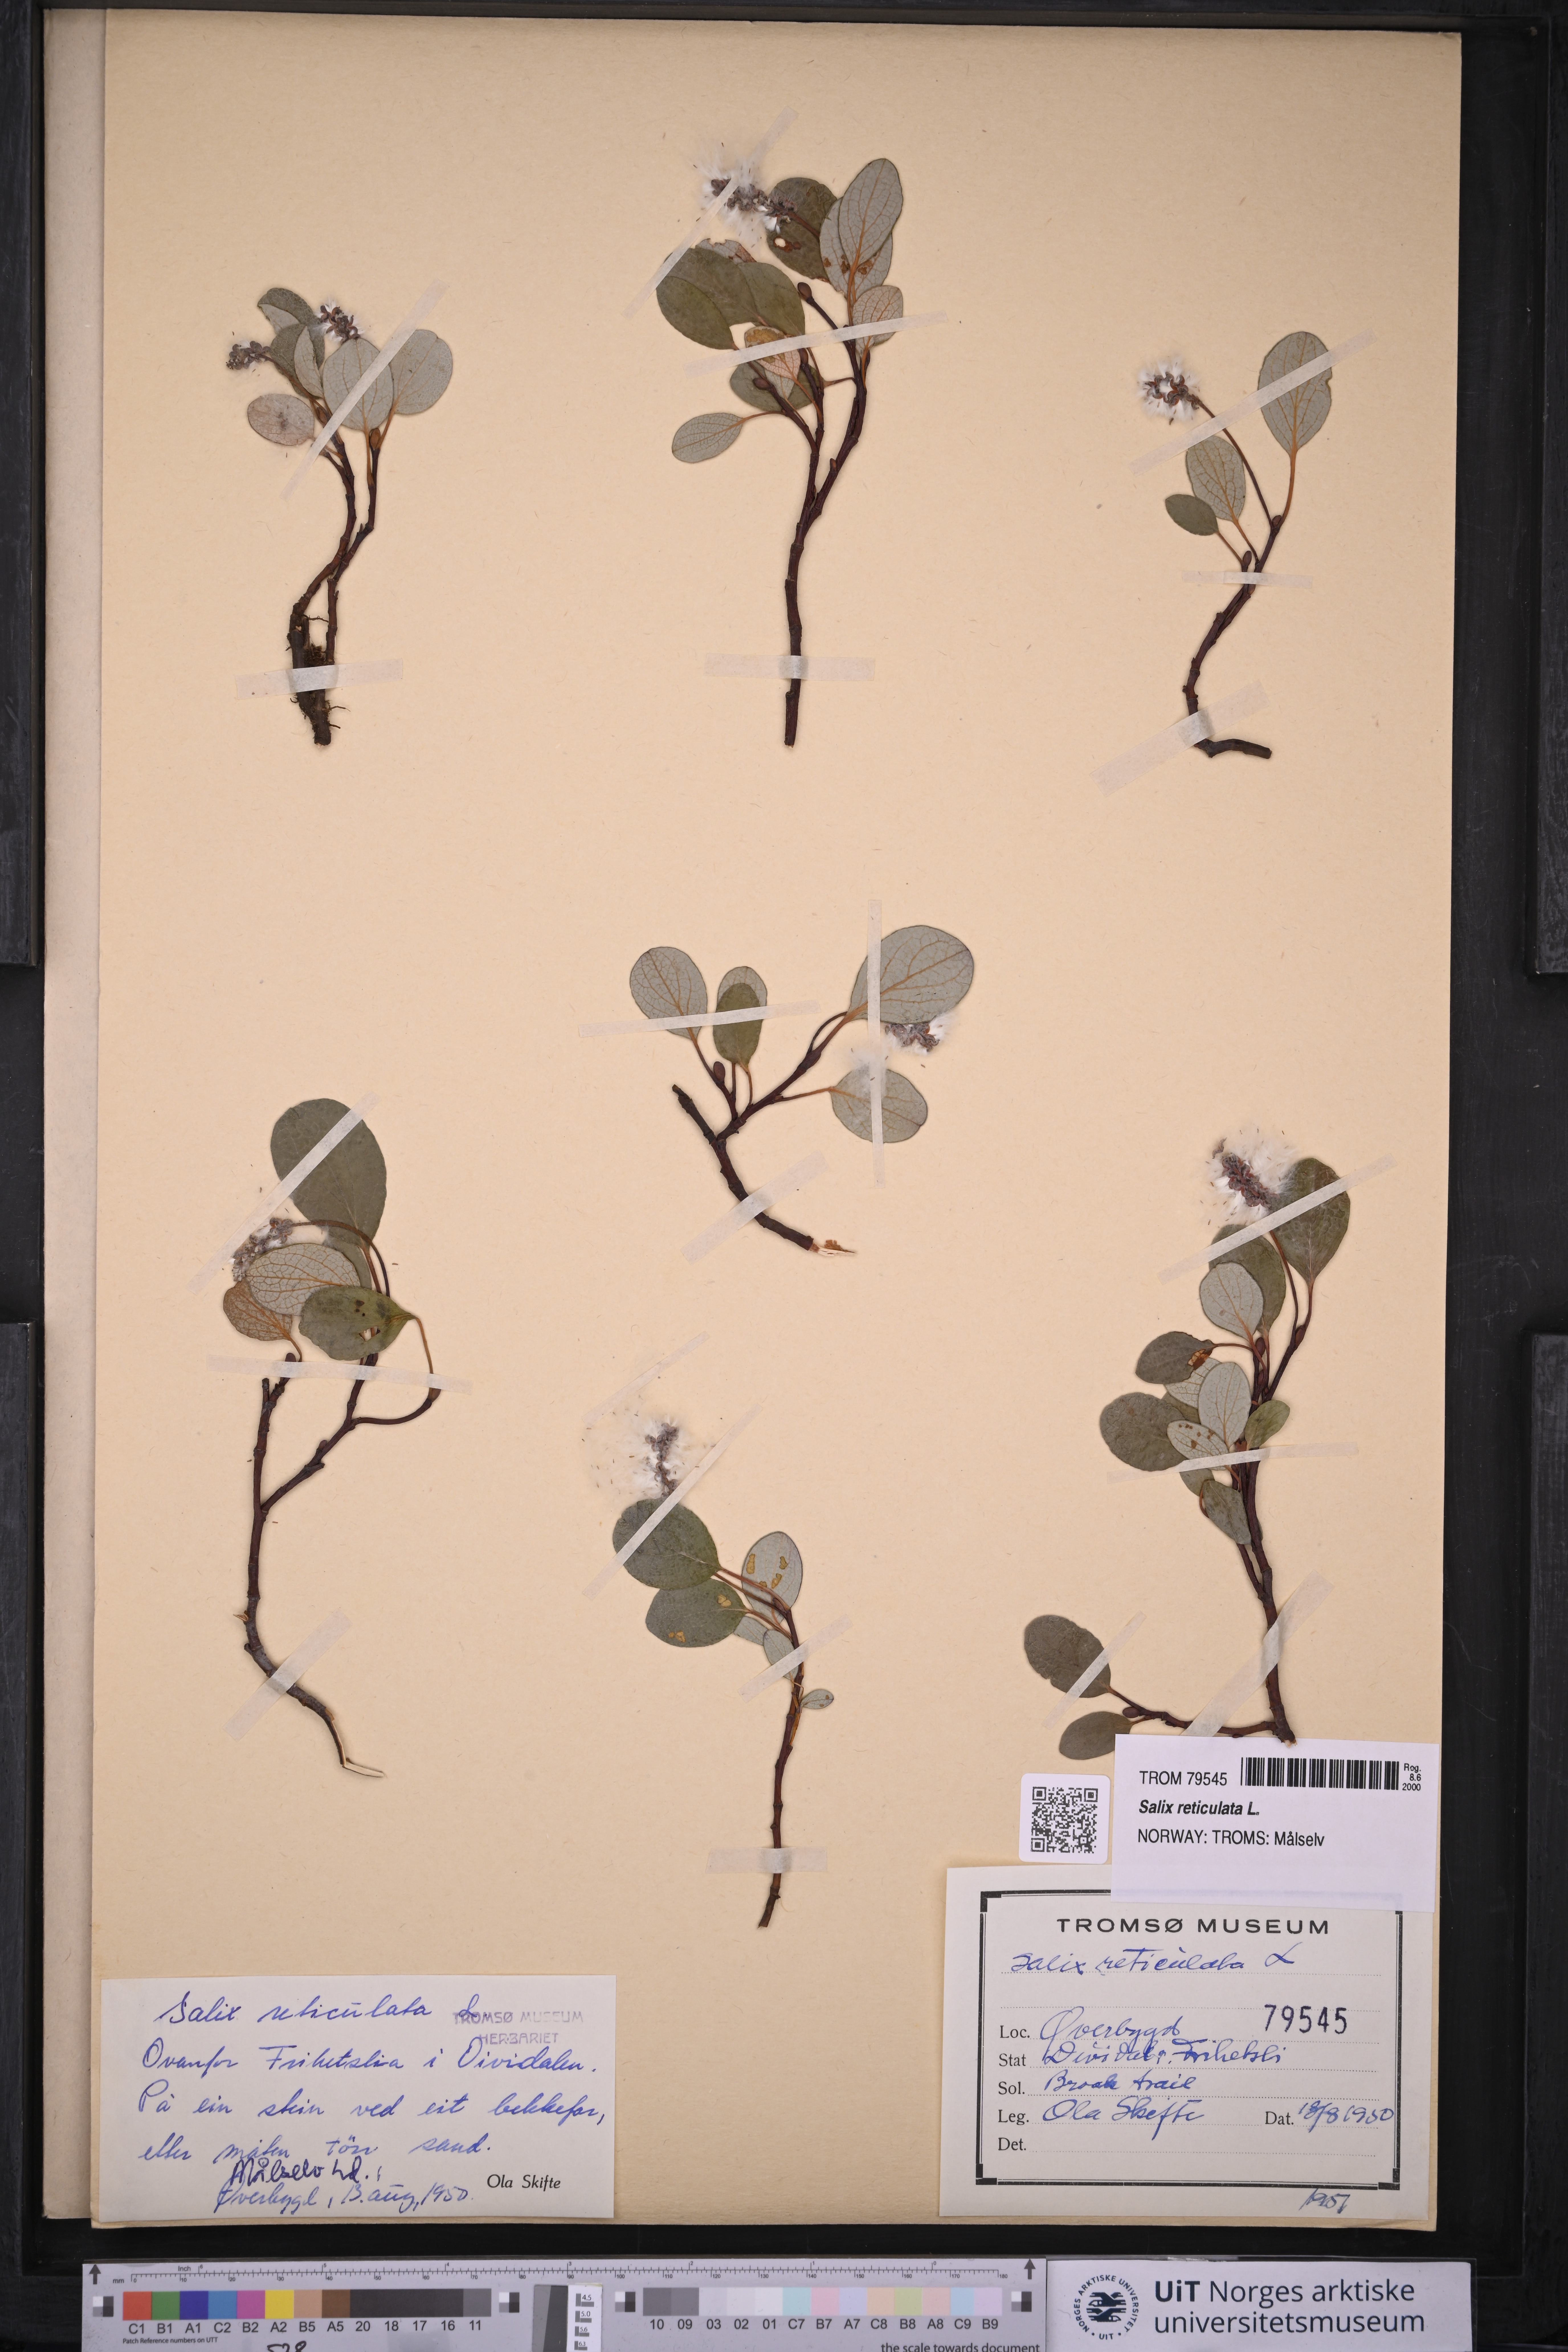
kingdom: Plantae
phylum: Tracheophyta
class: Magnoliopsida
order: Malpighiales
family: Salicaceae
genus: Salix
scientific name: Salix reticulata
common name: Net-leaved willow
